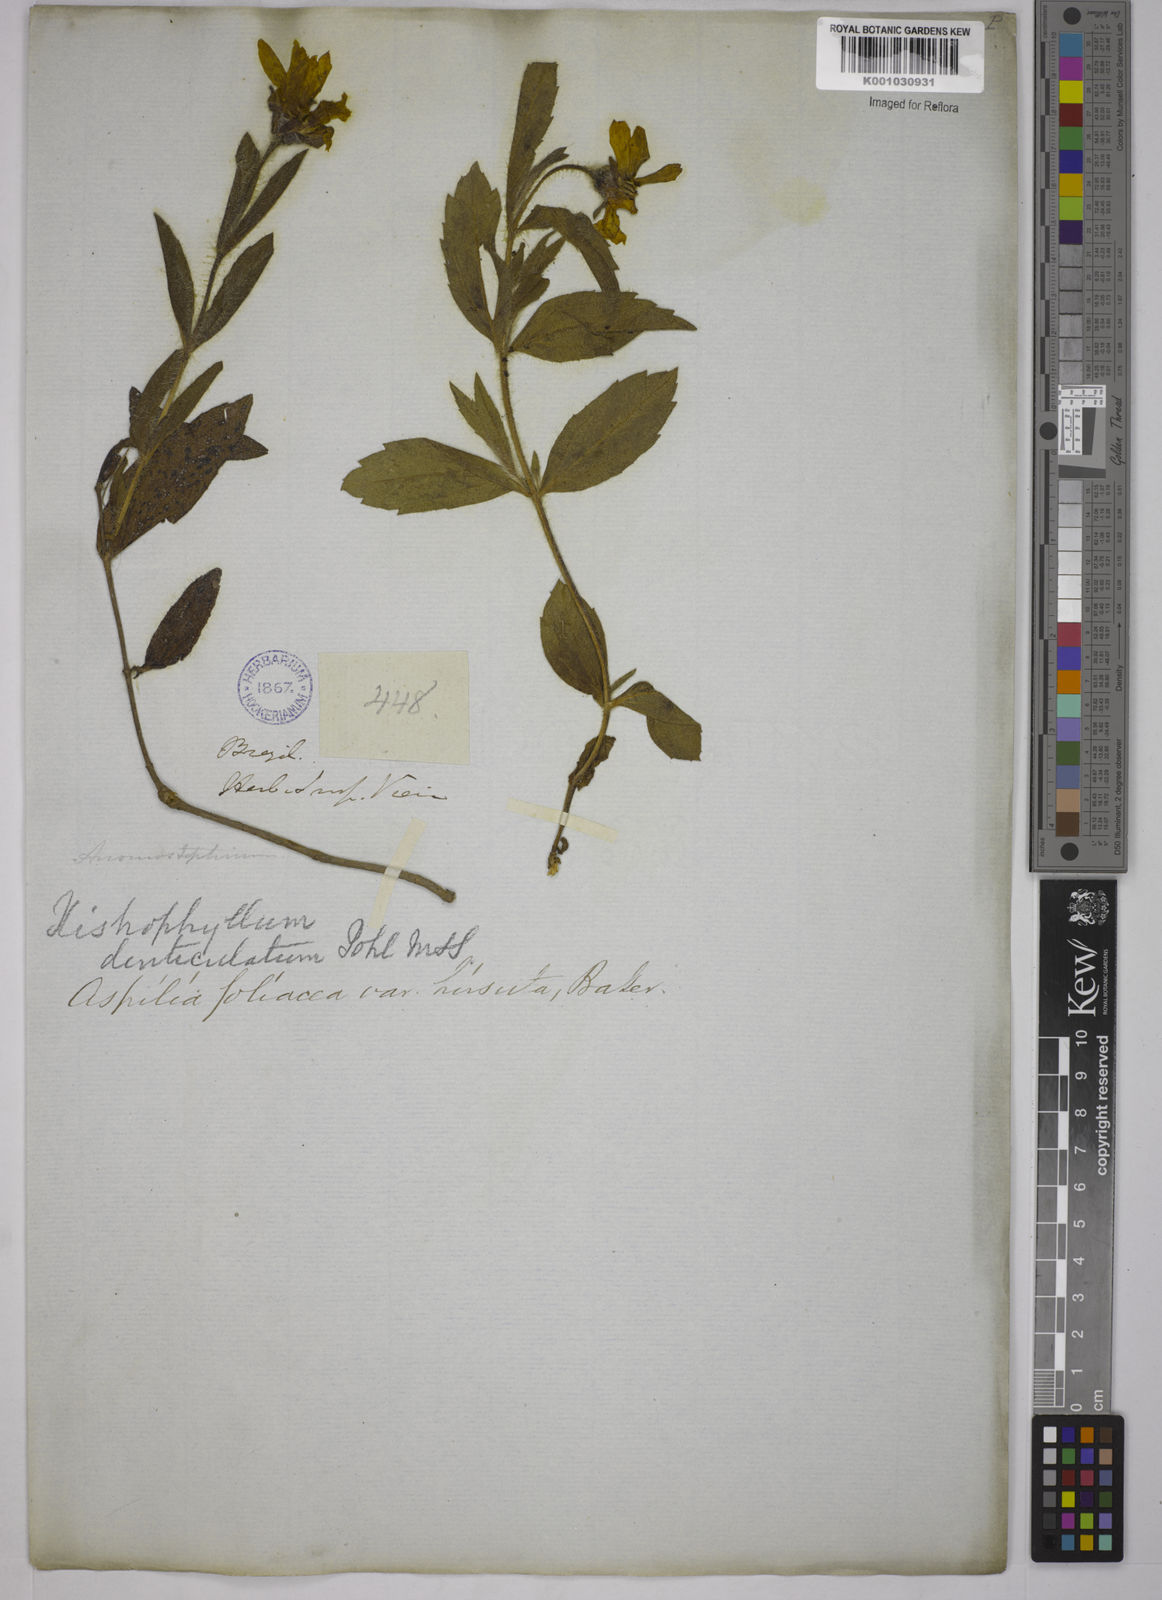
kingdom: Plantae
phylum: Tracheophyta
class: Magnoliopsida
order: Asterales
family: Asteraceae
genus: Wedelia
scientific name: Wedelia foliacea
